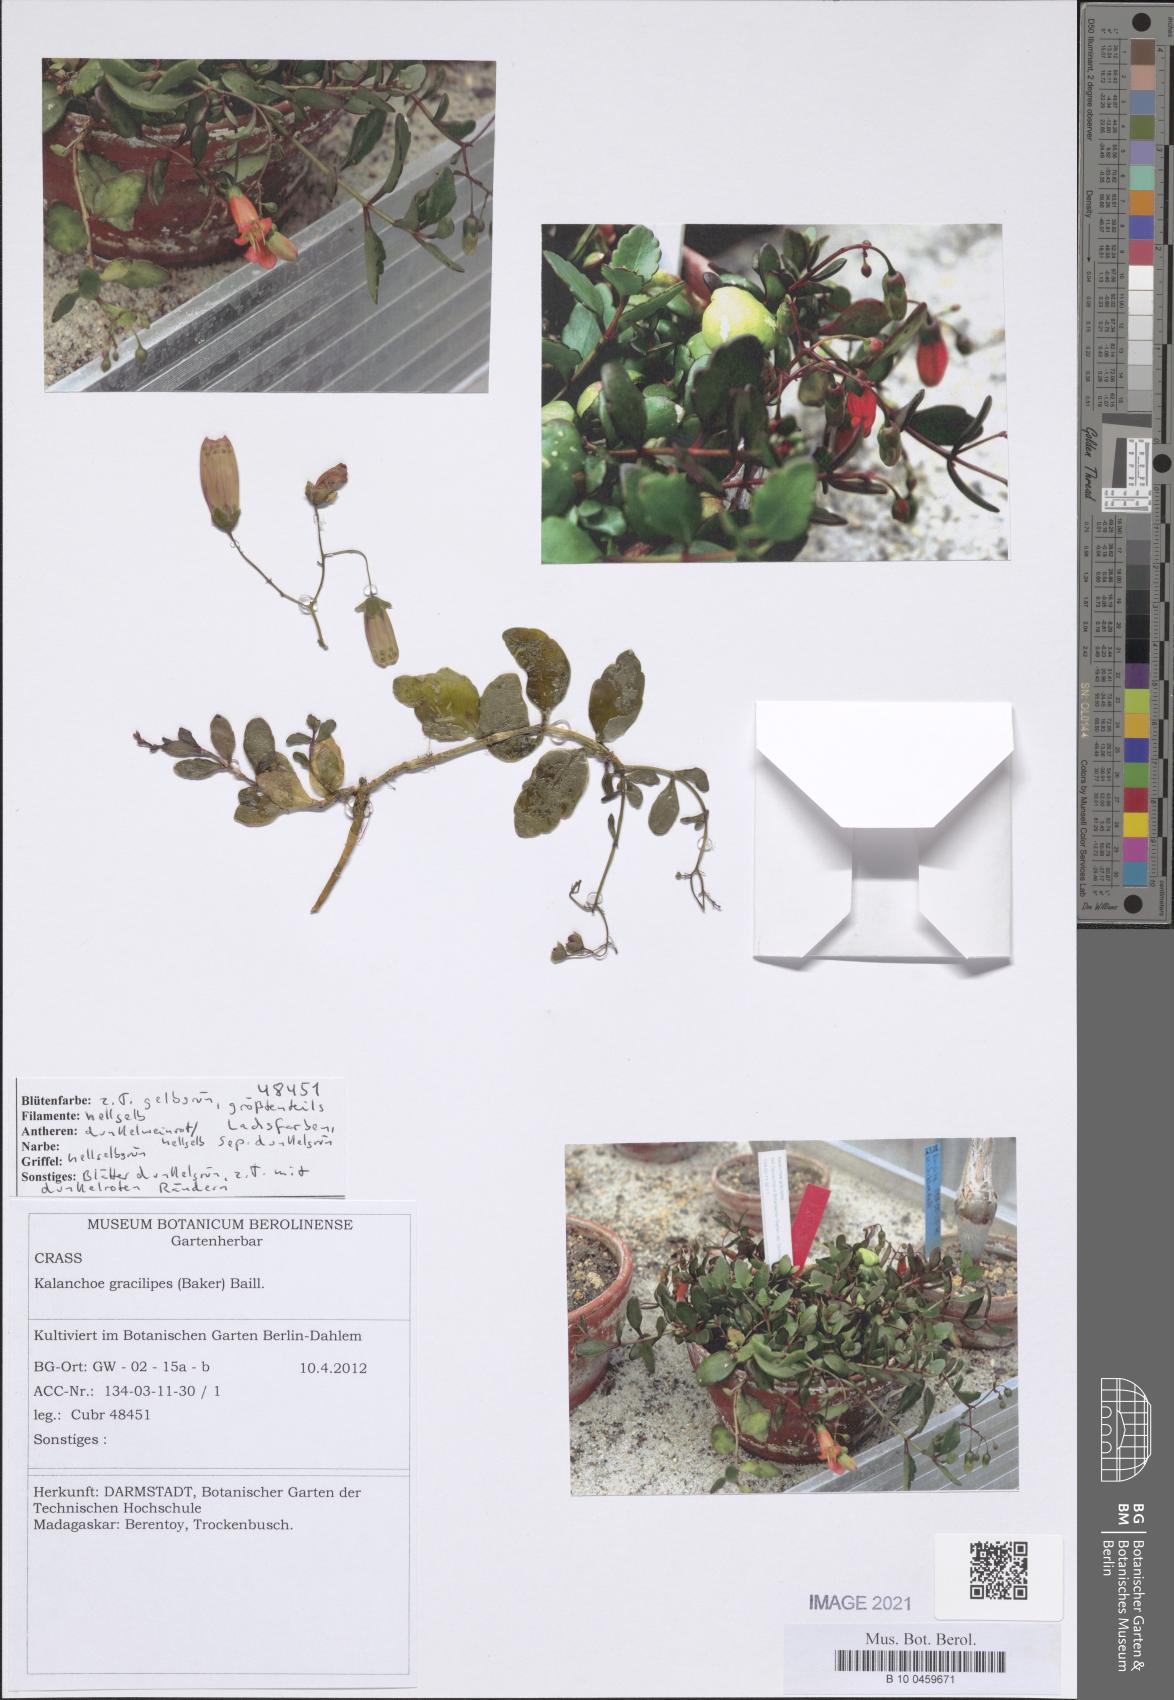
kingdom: Plantae
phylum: Tracheophyta
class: Magnoliopsida
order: Saxifragales
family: Crassulaceae
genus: Kalanchoe
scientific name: Kalanchoe gracilipes
